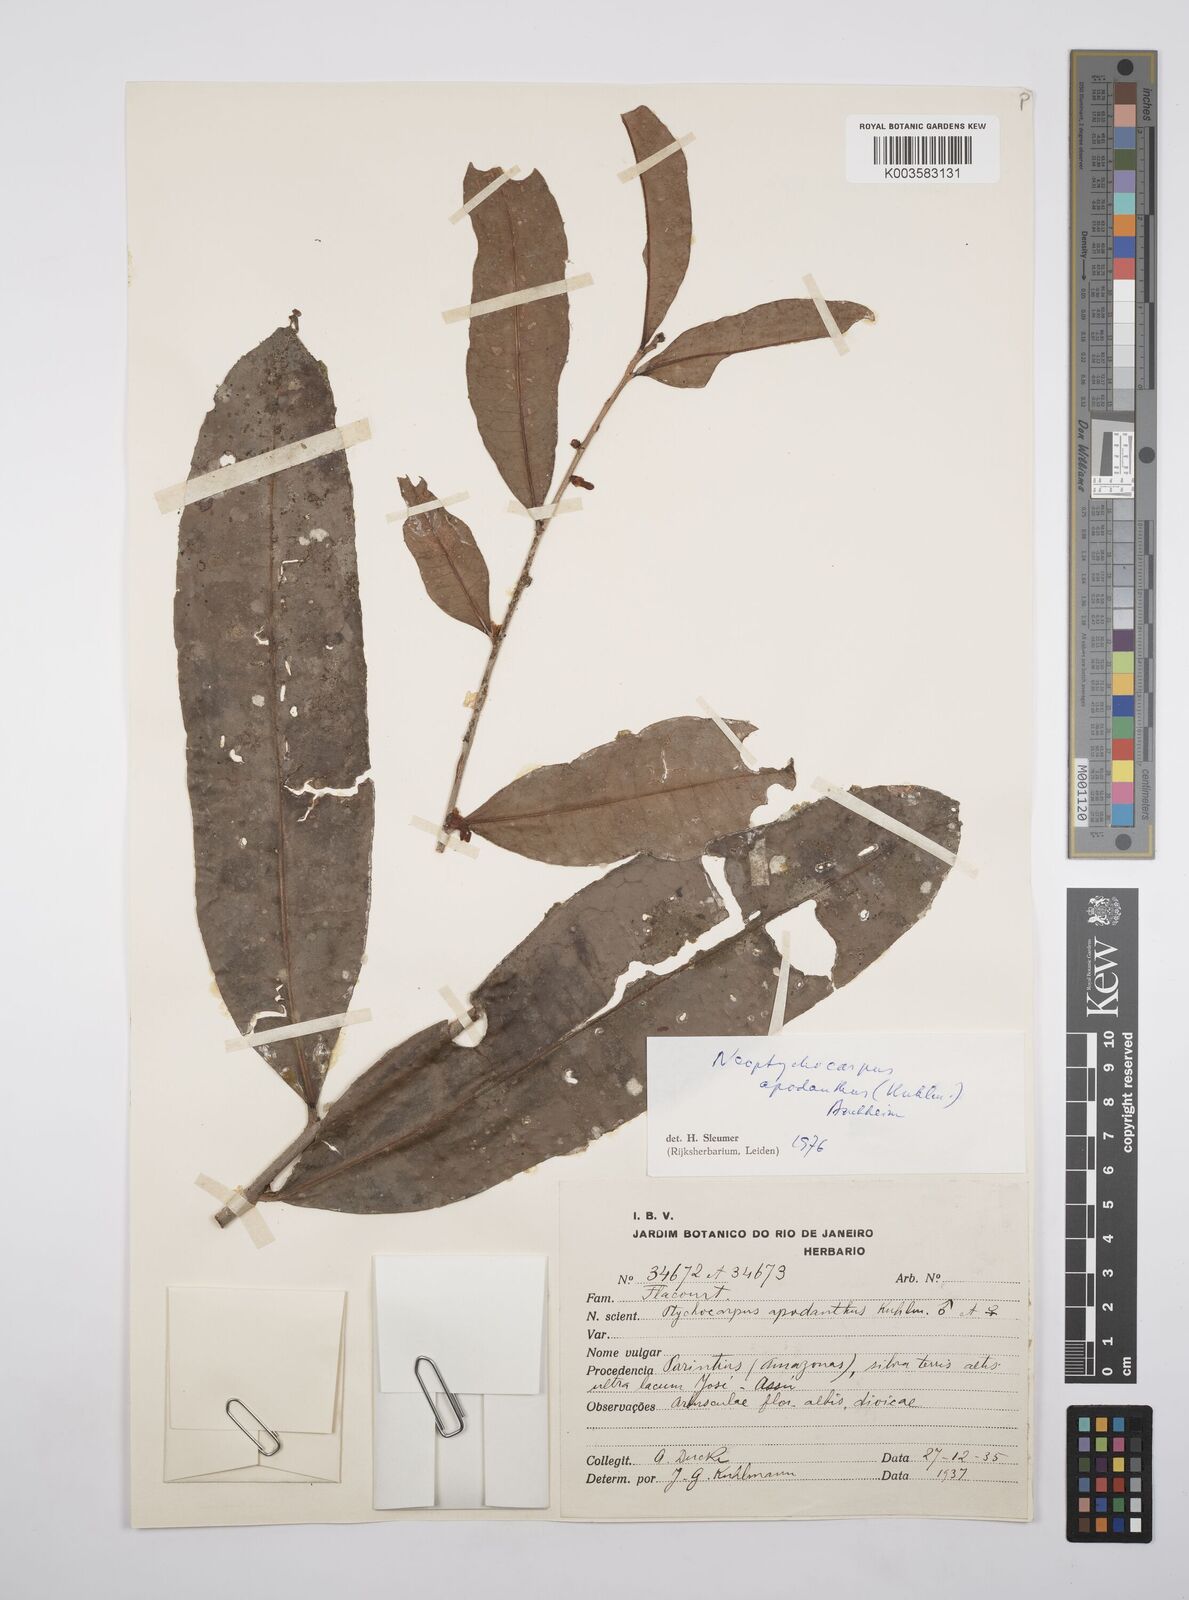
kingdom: Plantae
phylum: Tracheophyta
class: Magnoliopsida
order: Malpighiales
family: Salicaceae
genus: Casearia
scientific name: Casearia apodantha
